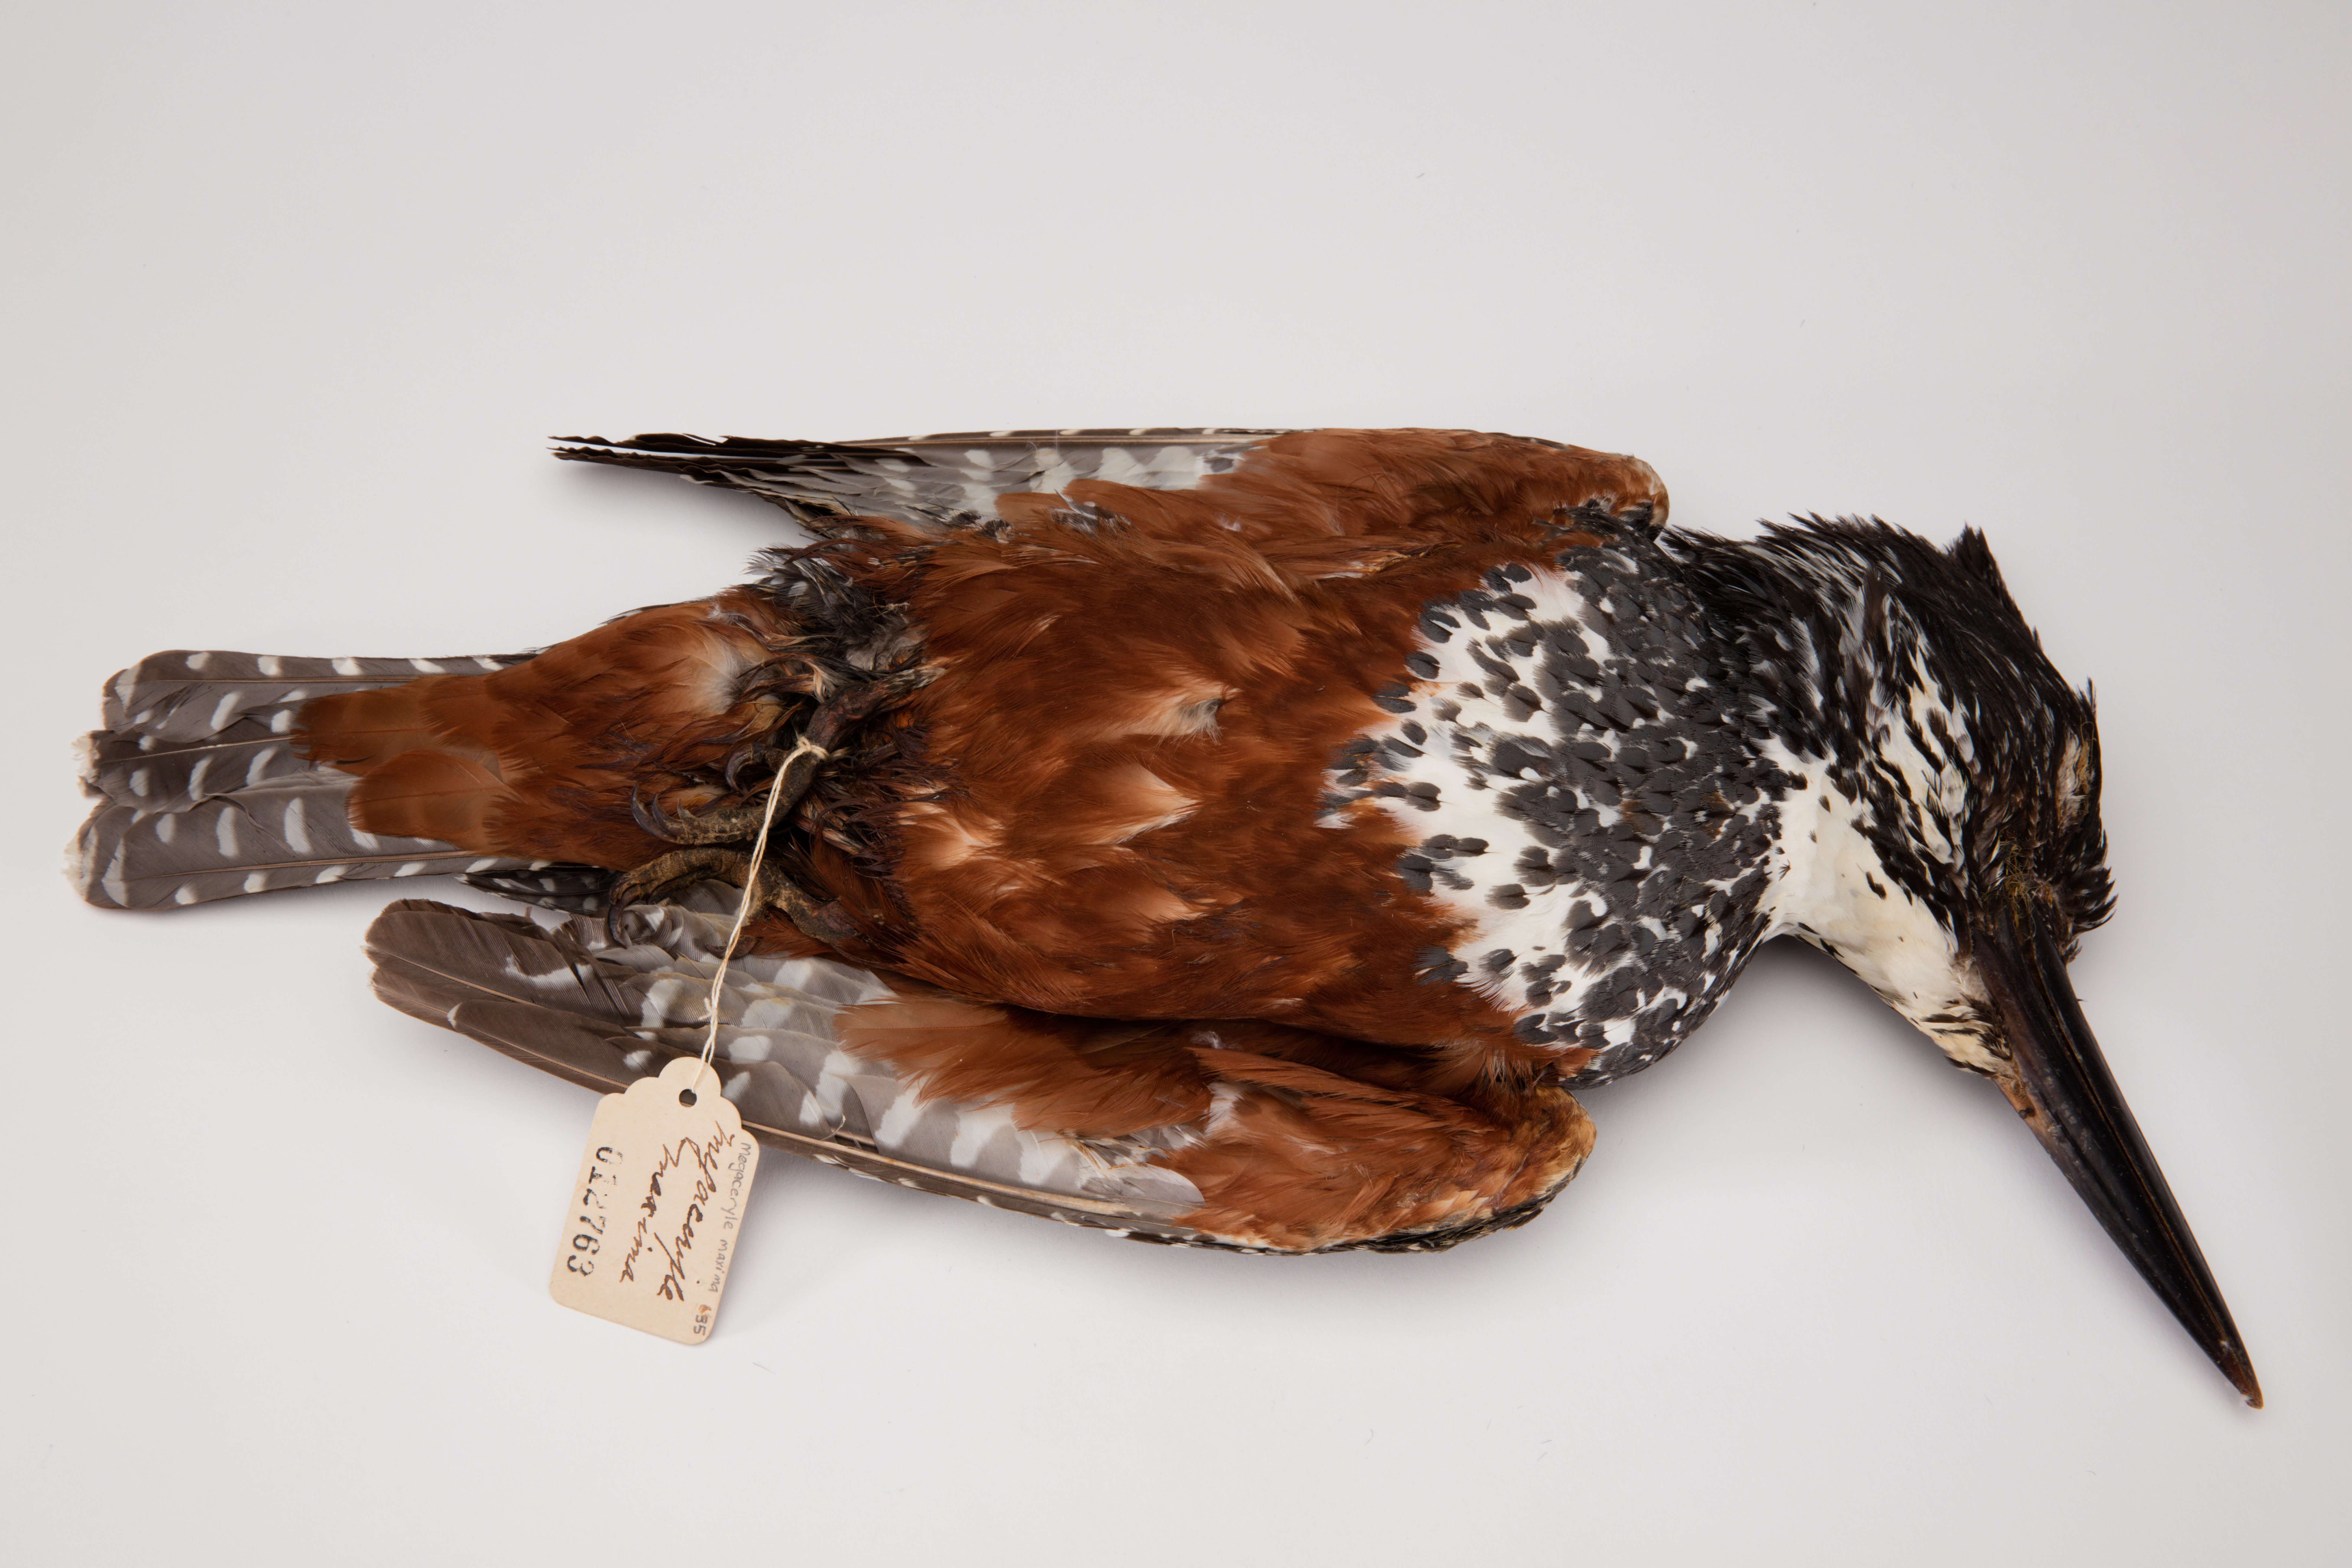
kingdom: Animalia
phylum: Chordata
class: Aves
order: Coraciiformes
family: Alcedinidae
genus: Megaceryle
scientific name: Megaceryle maxima
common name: Giant kingfisher
